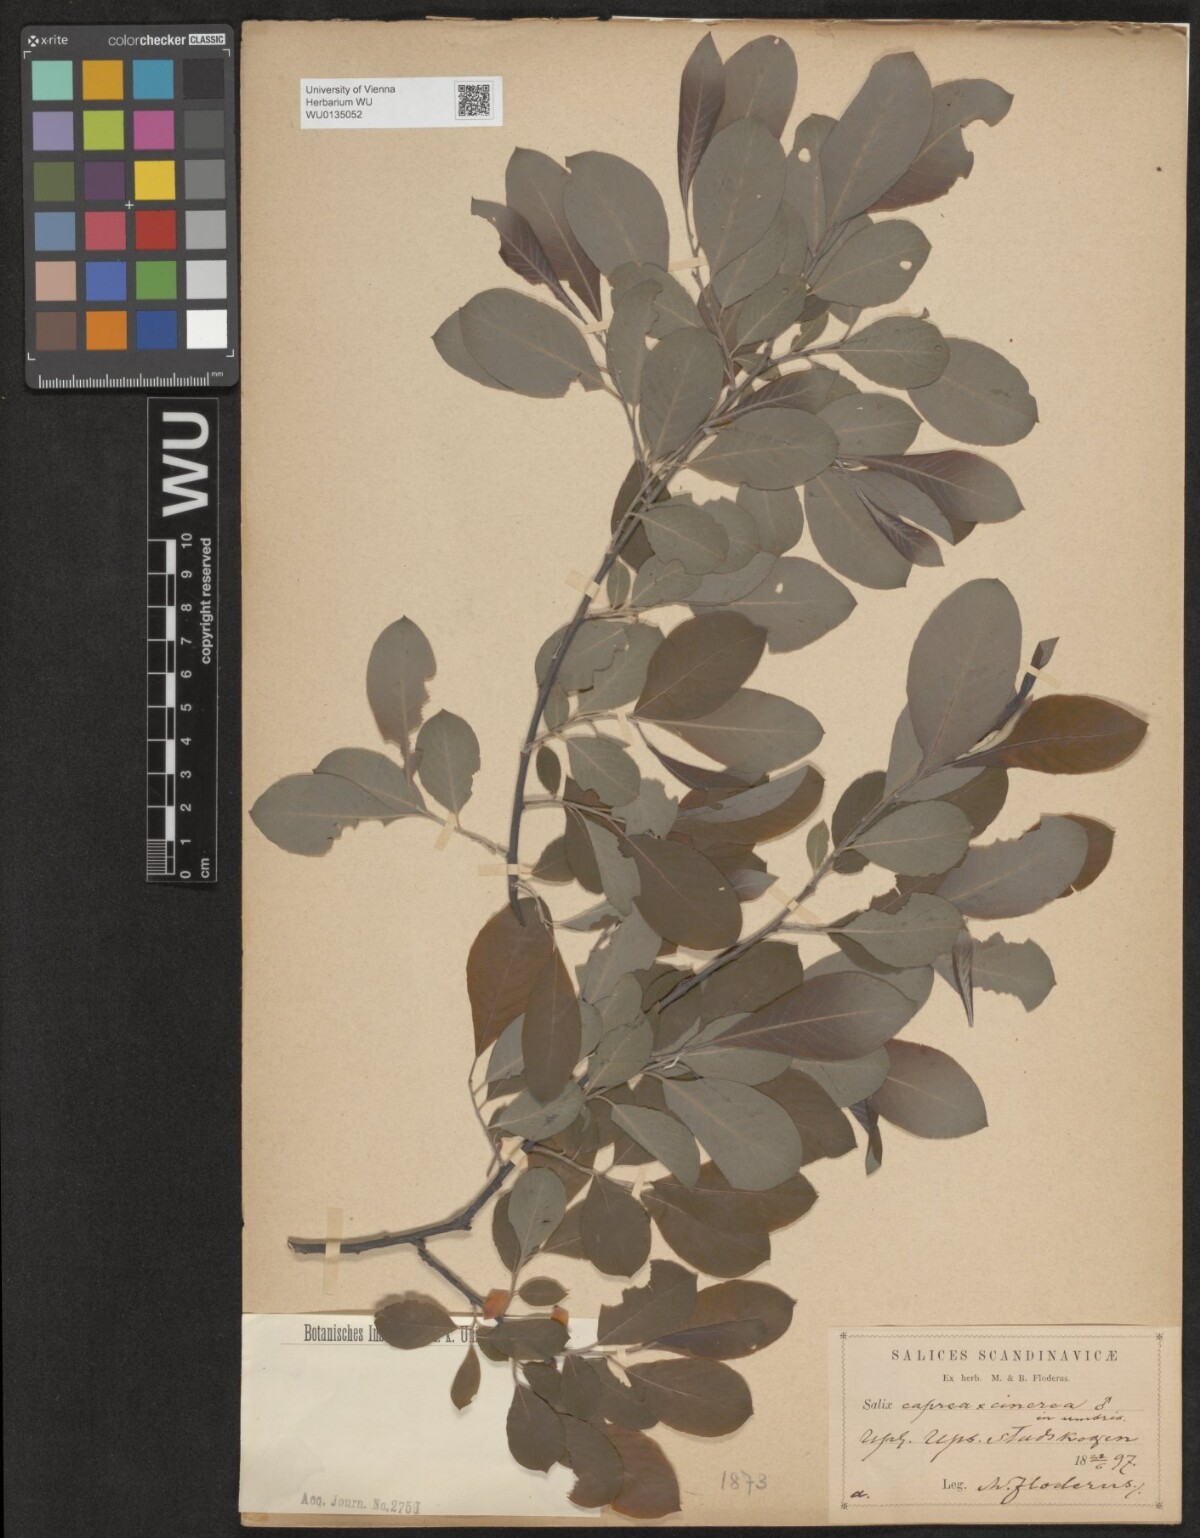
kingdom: Plantae
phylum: Tracheophyta
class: Magnoliopsida
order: Malpighiales
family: Salicaceae
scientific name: Salicaceae
